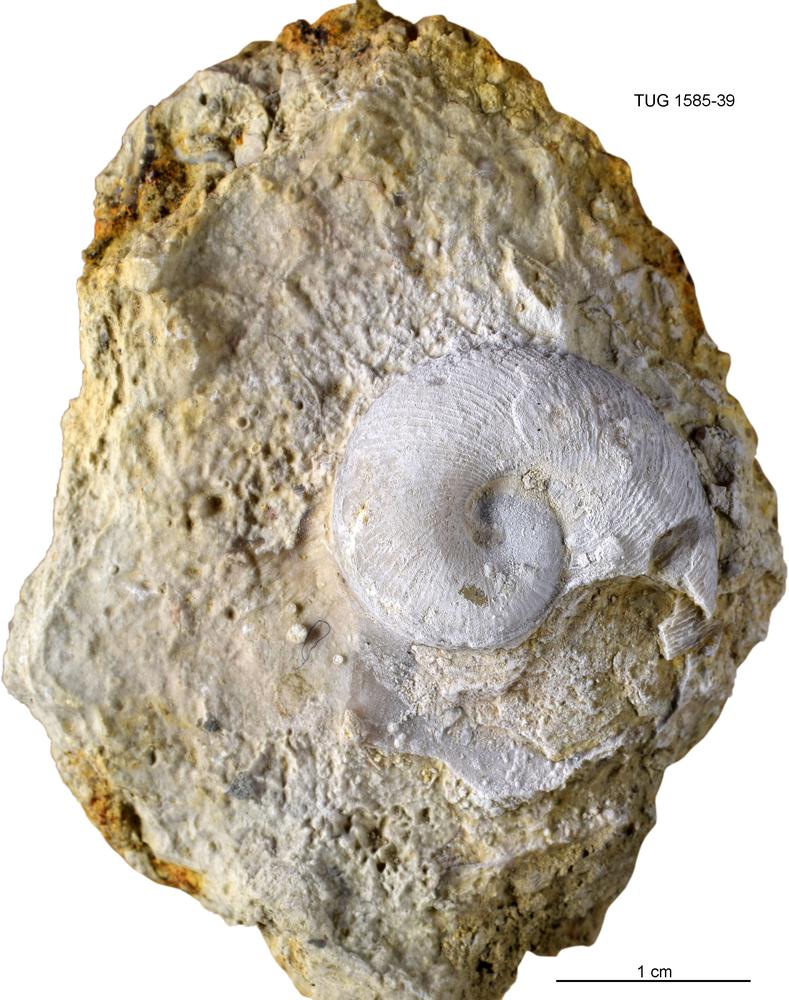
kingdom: Animalia
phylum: Mollusca
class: Cephalopoda
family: Trocholitidae
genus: Discoceras
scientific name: Discoceras Schroederoceras vasalemmense
